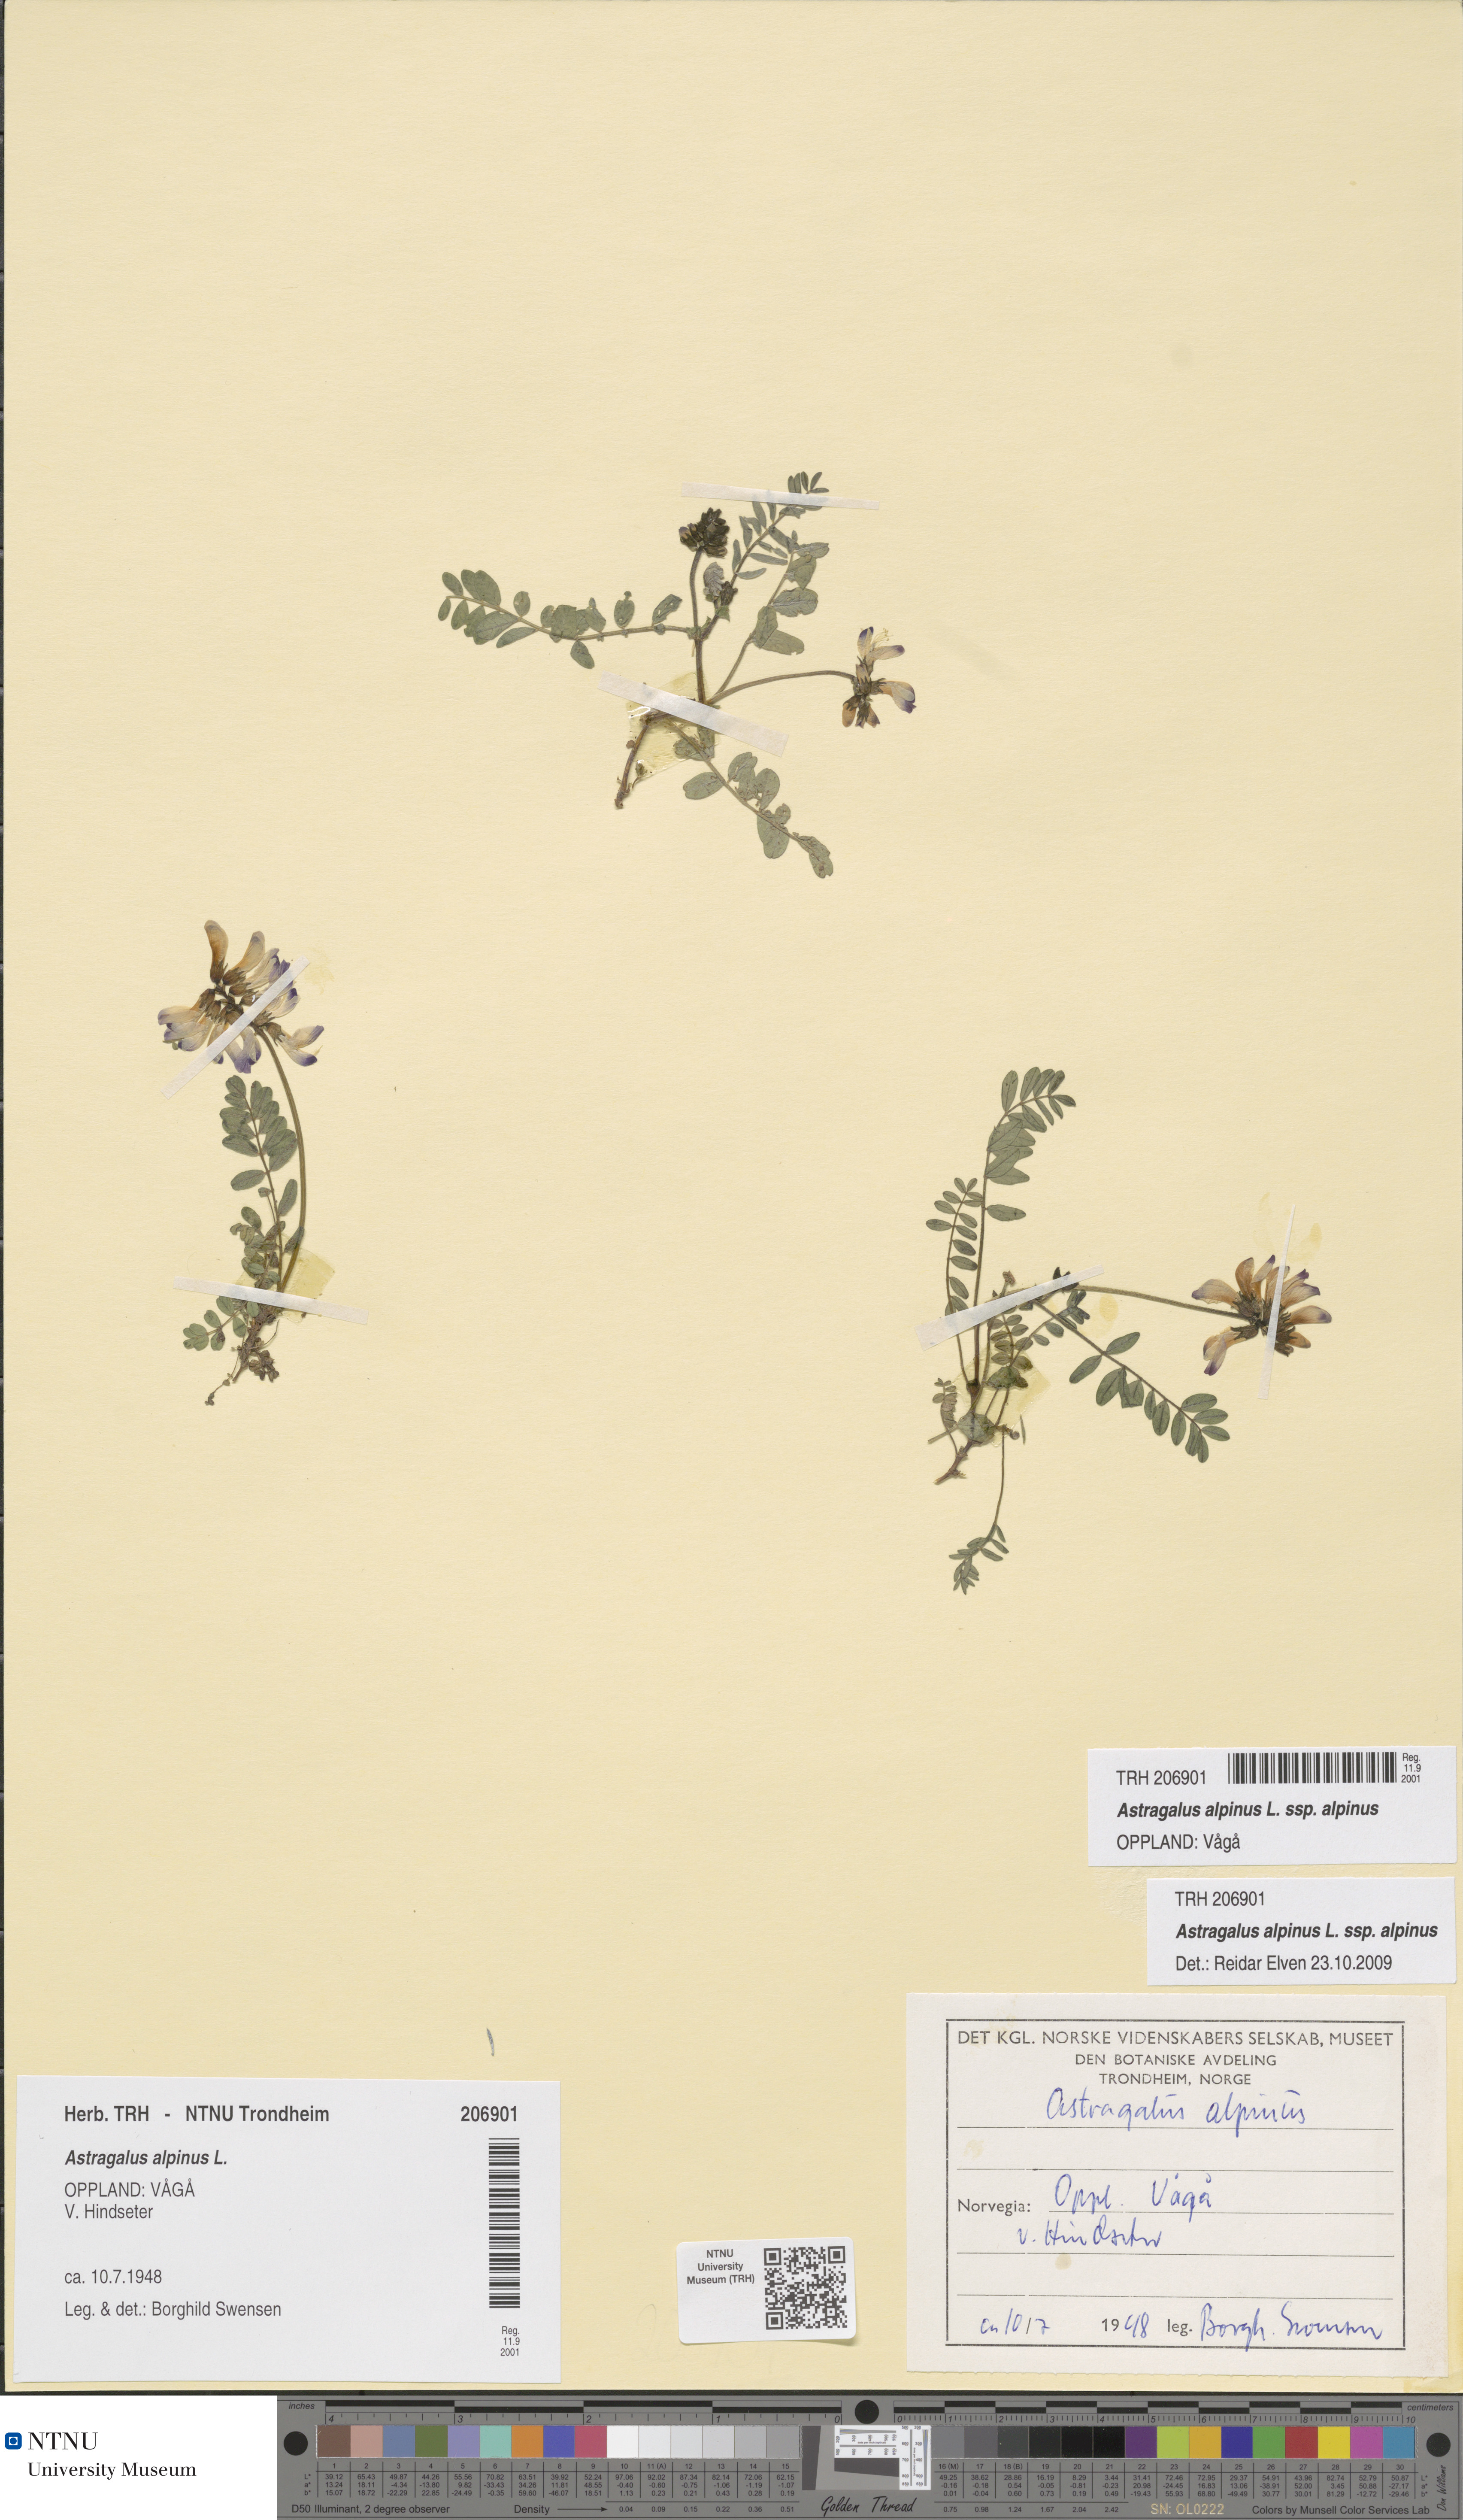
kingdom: Plantae
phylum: Tracheophyta
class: Magnoliopsida
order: Fabales
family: Fabaceae
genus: Astragalus
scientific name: Astragalus alpinus
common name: Alpine milk-vetch
